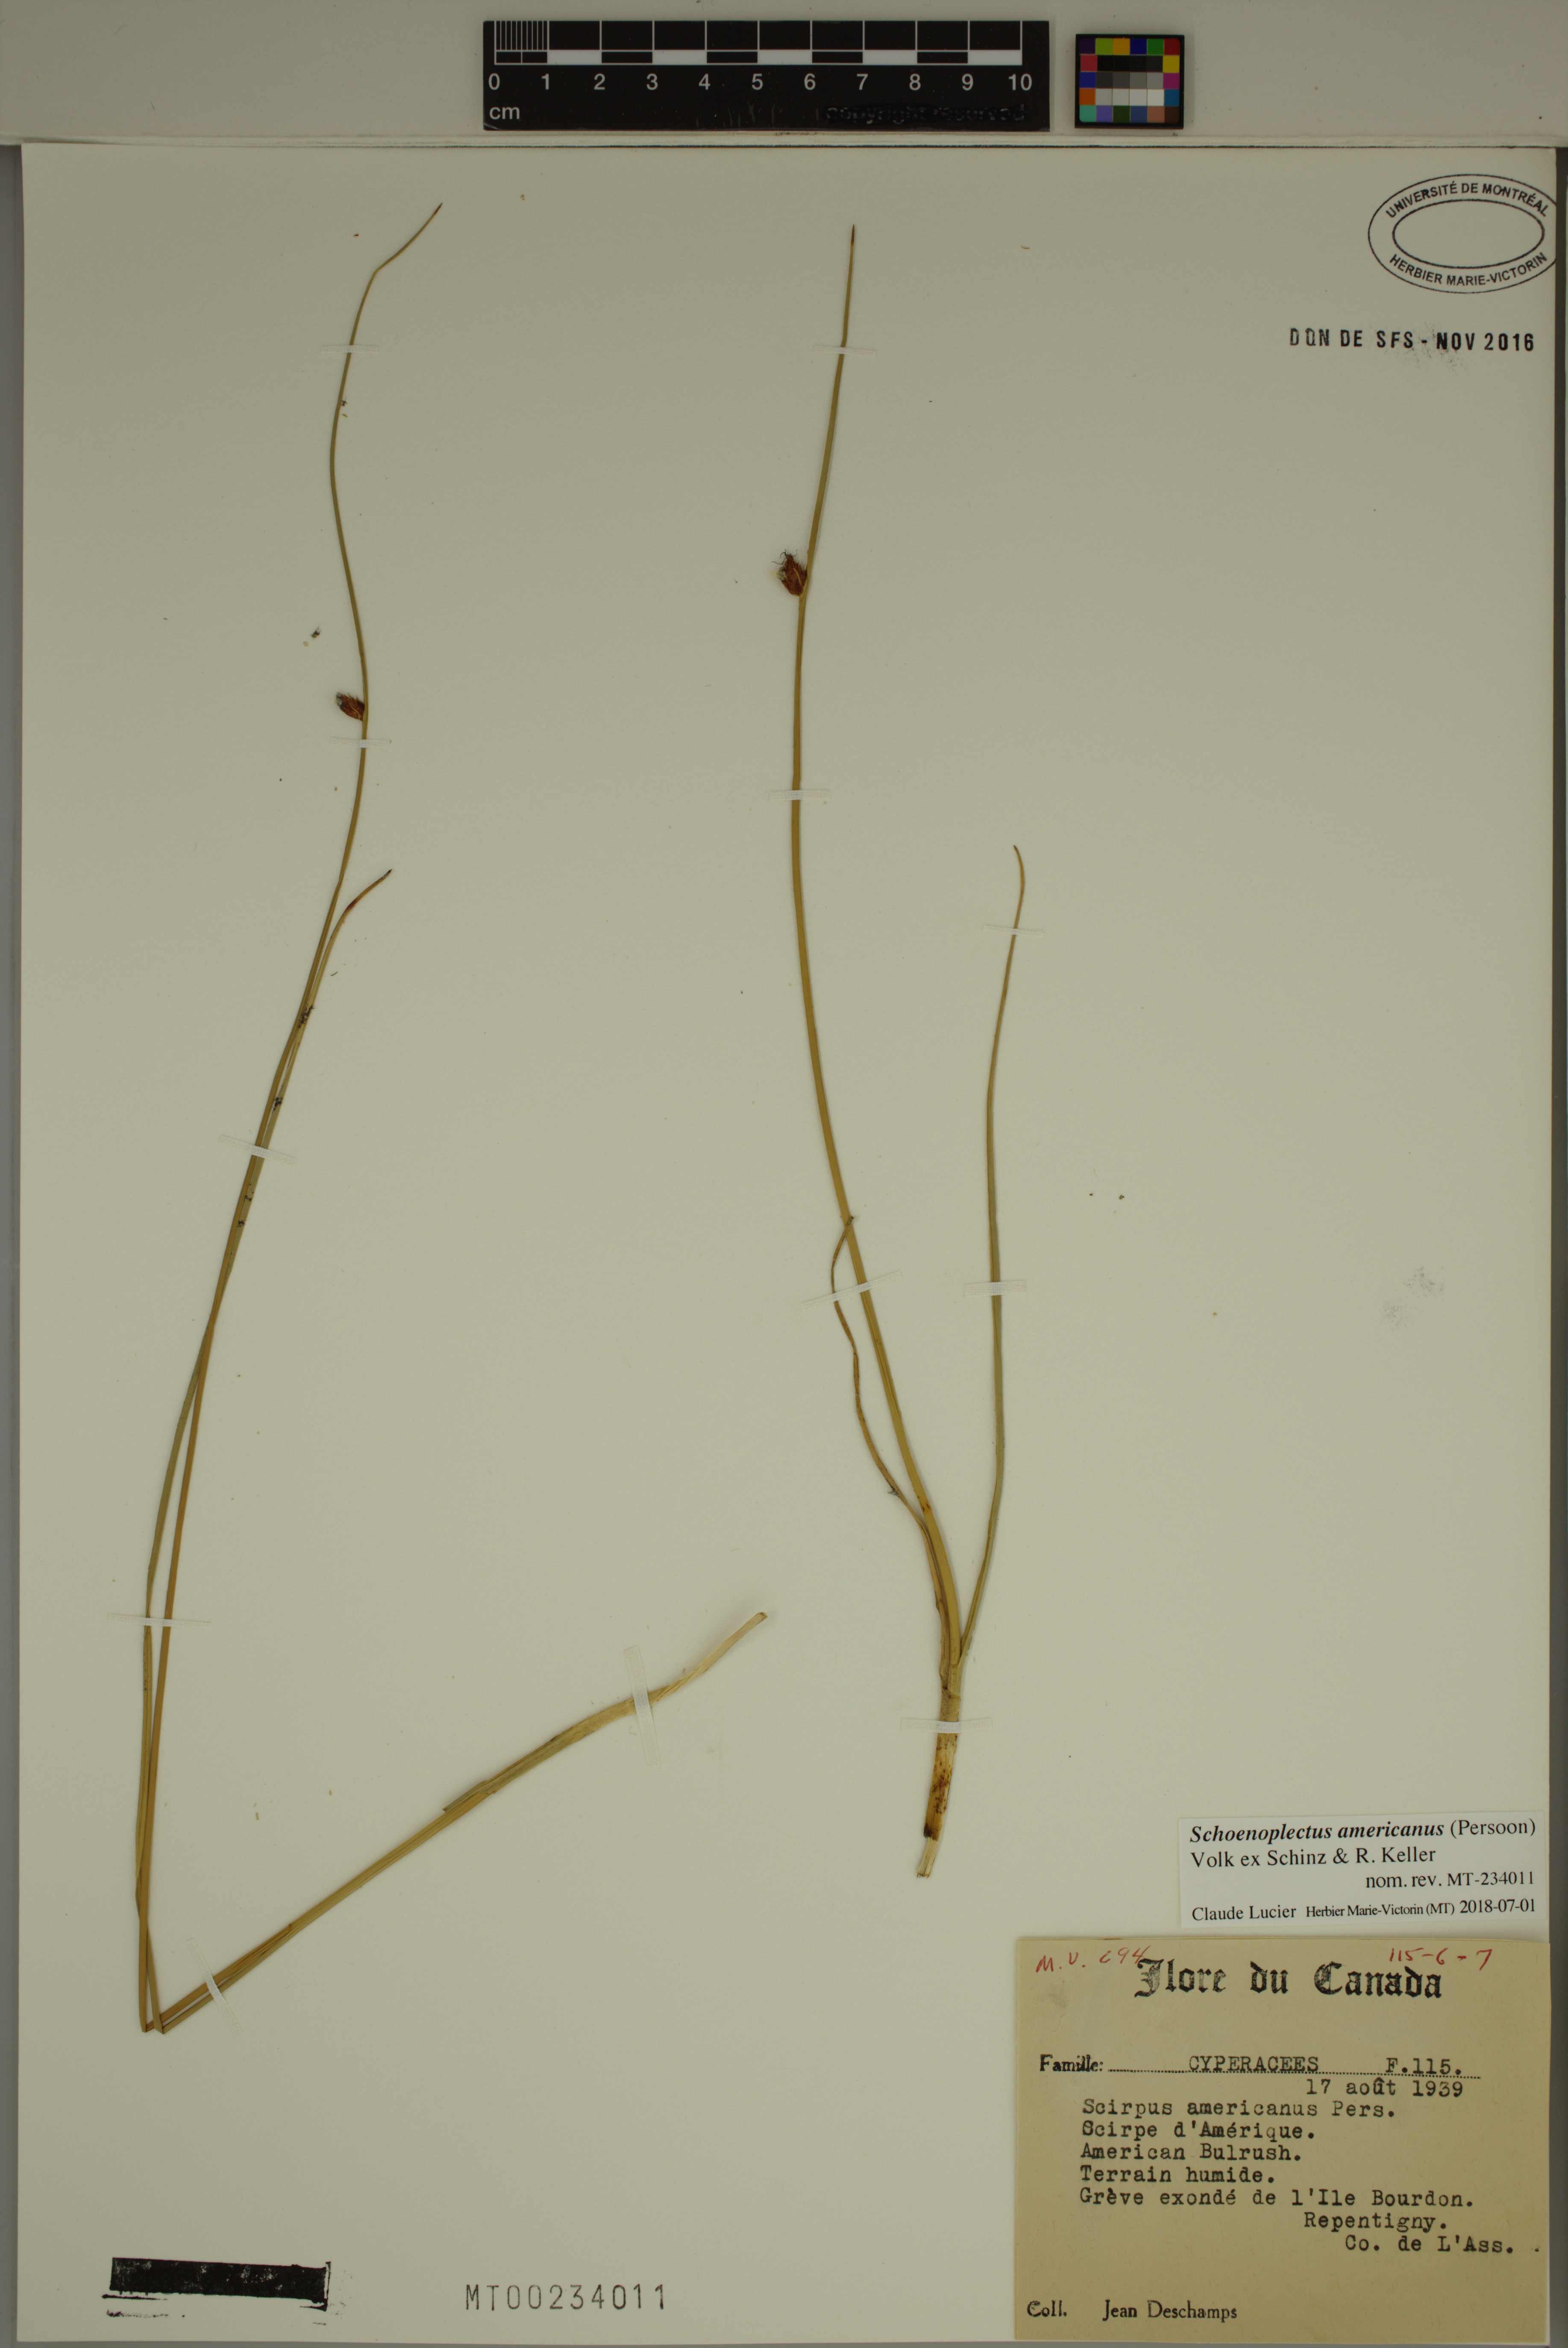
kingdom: Plantae
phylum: Tracheophyta
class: Liliopsida
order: Poales
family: Cyperaceae
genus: Schoenoplectus
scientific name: Schoenoplectus americanus
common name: American three-square bulrush
